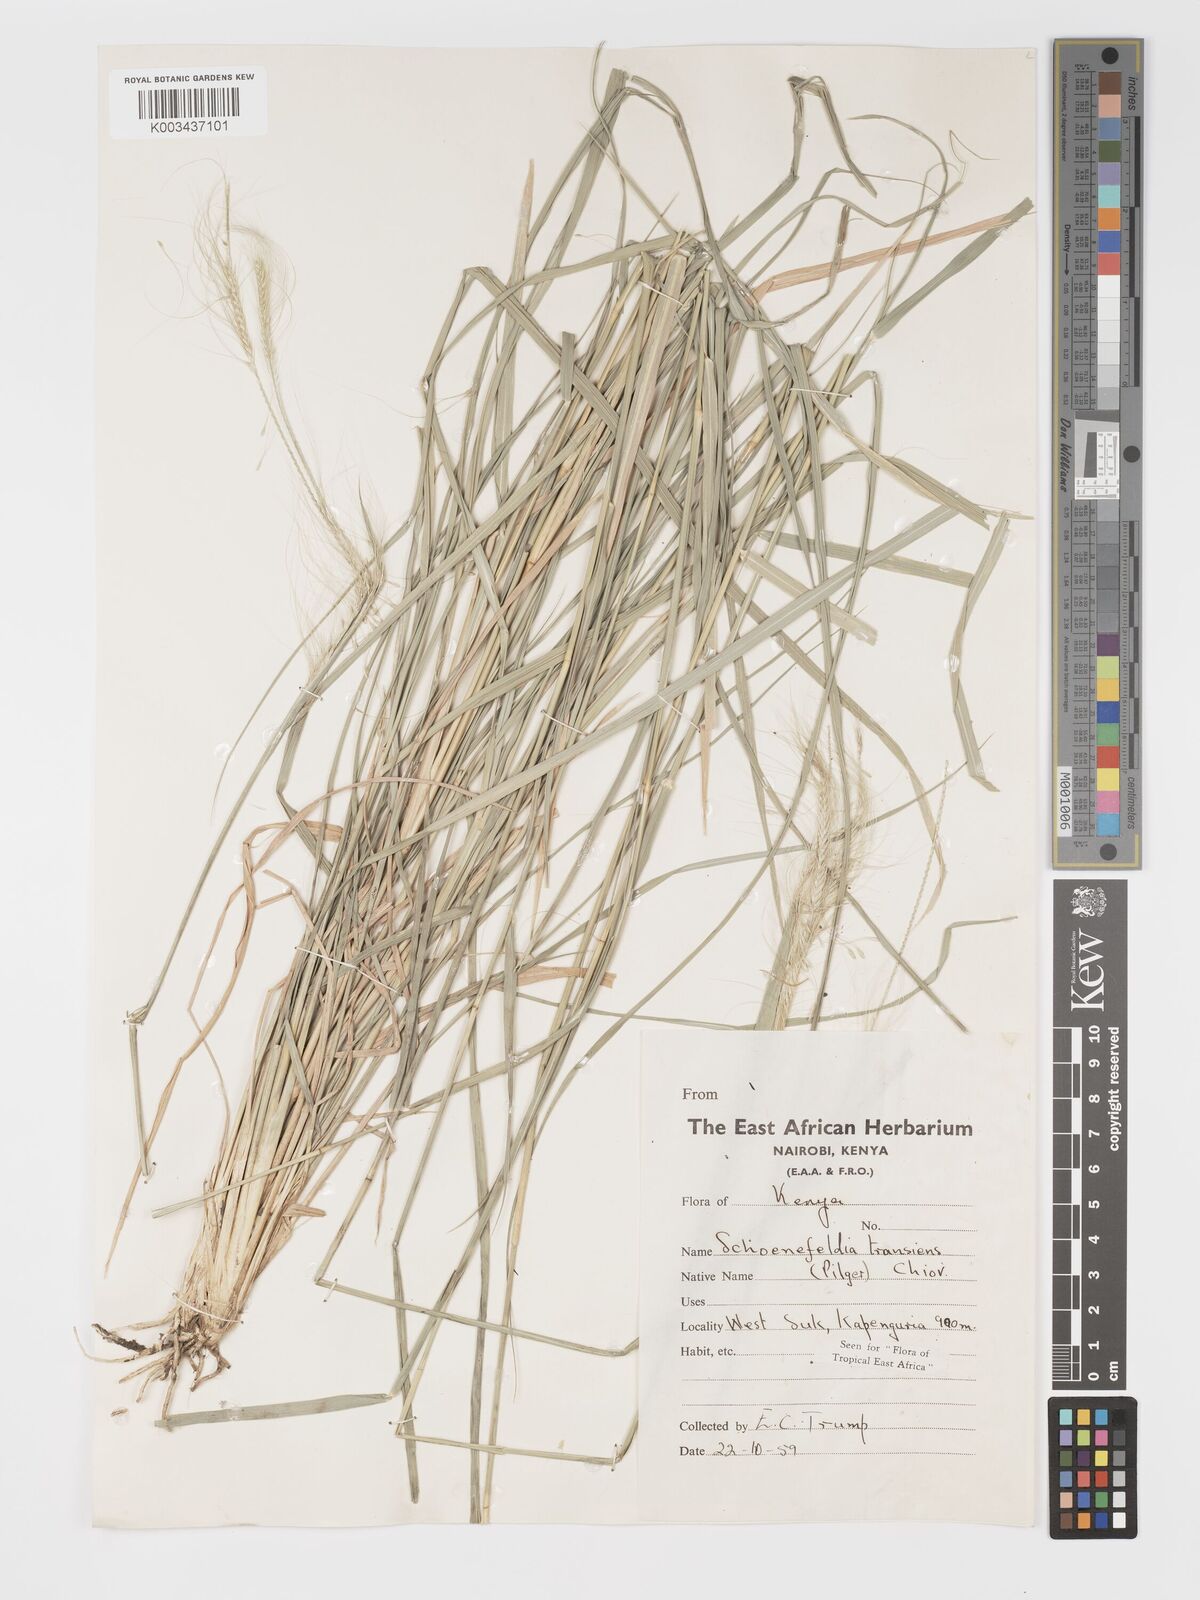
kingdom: Plantae
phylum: Tracheophyta
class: Liliopsida
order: Poales
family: Poaceae
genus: Schoenefeldia
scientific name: Schoenefeldia transiens
